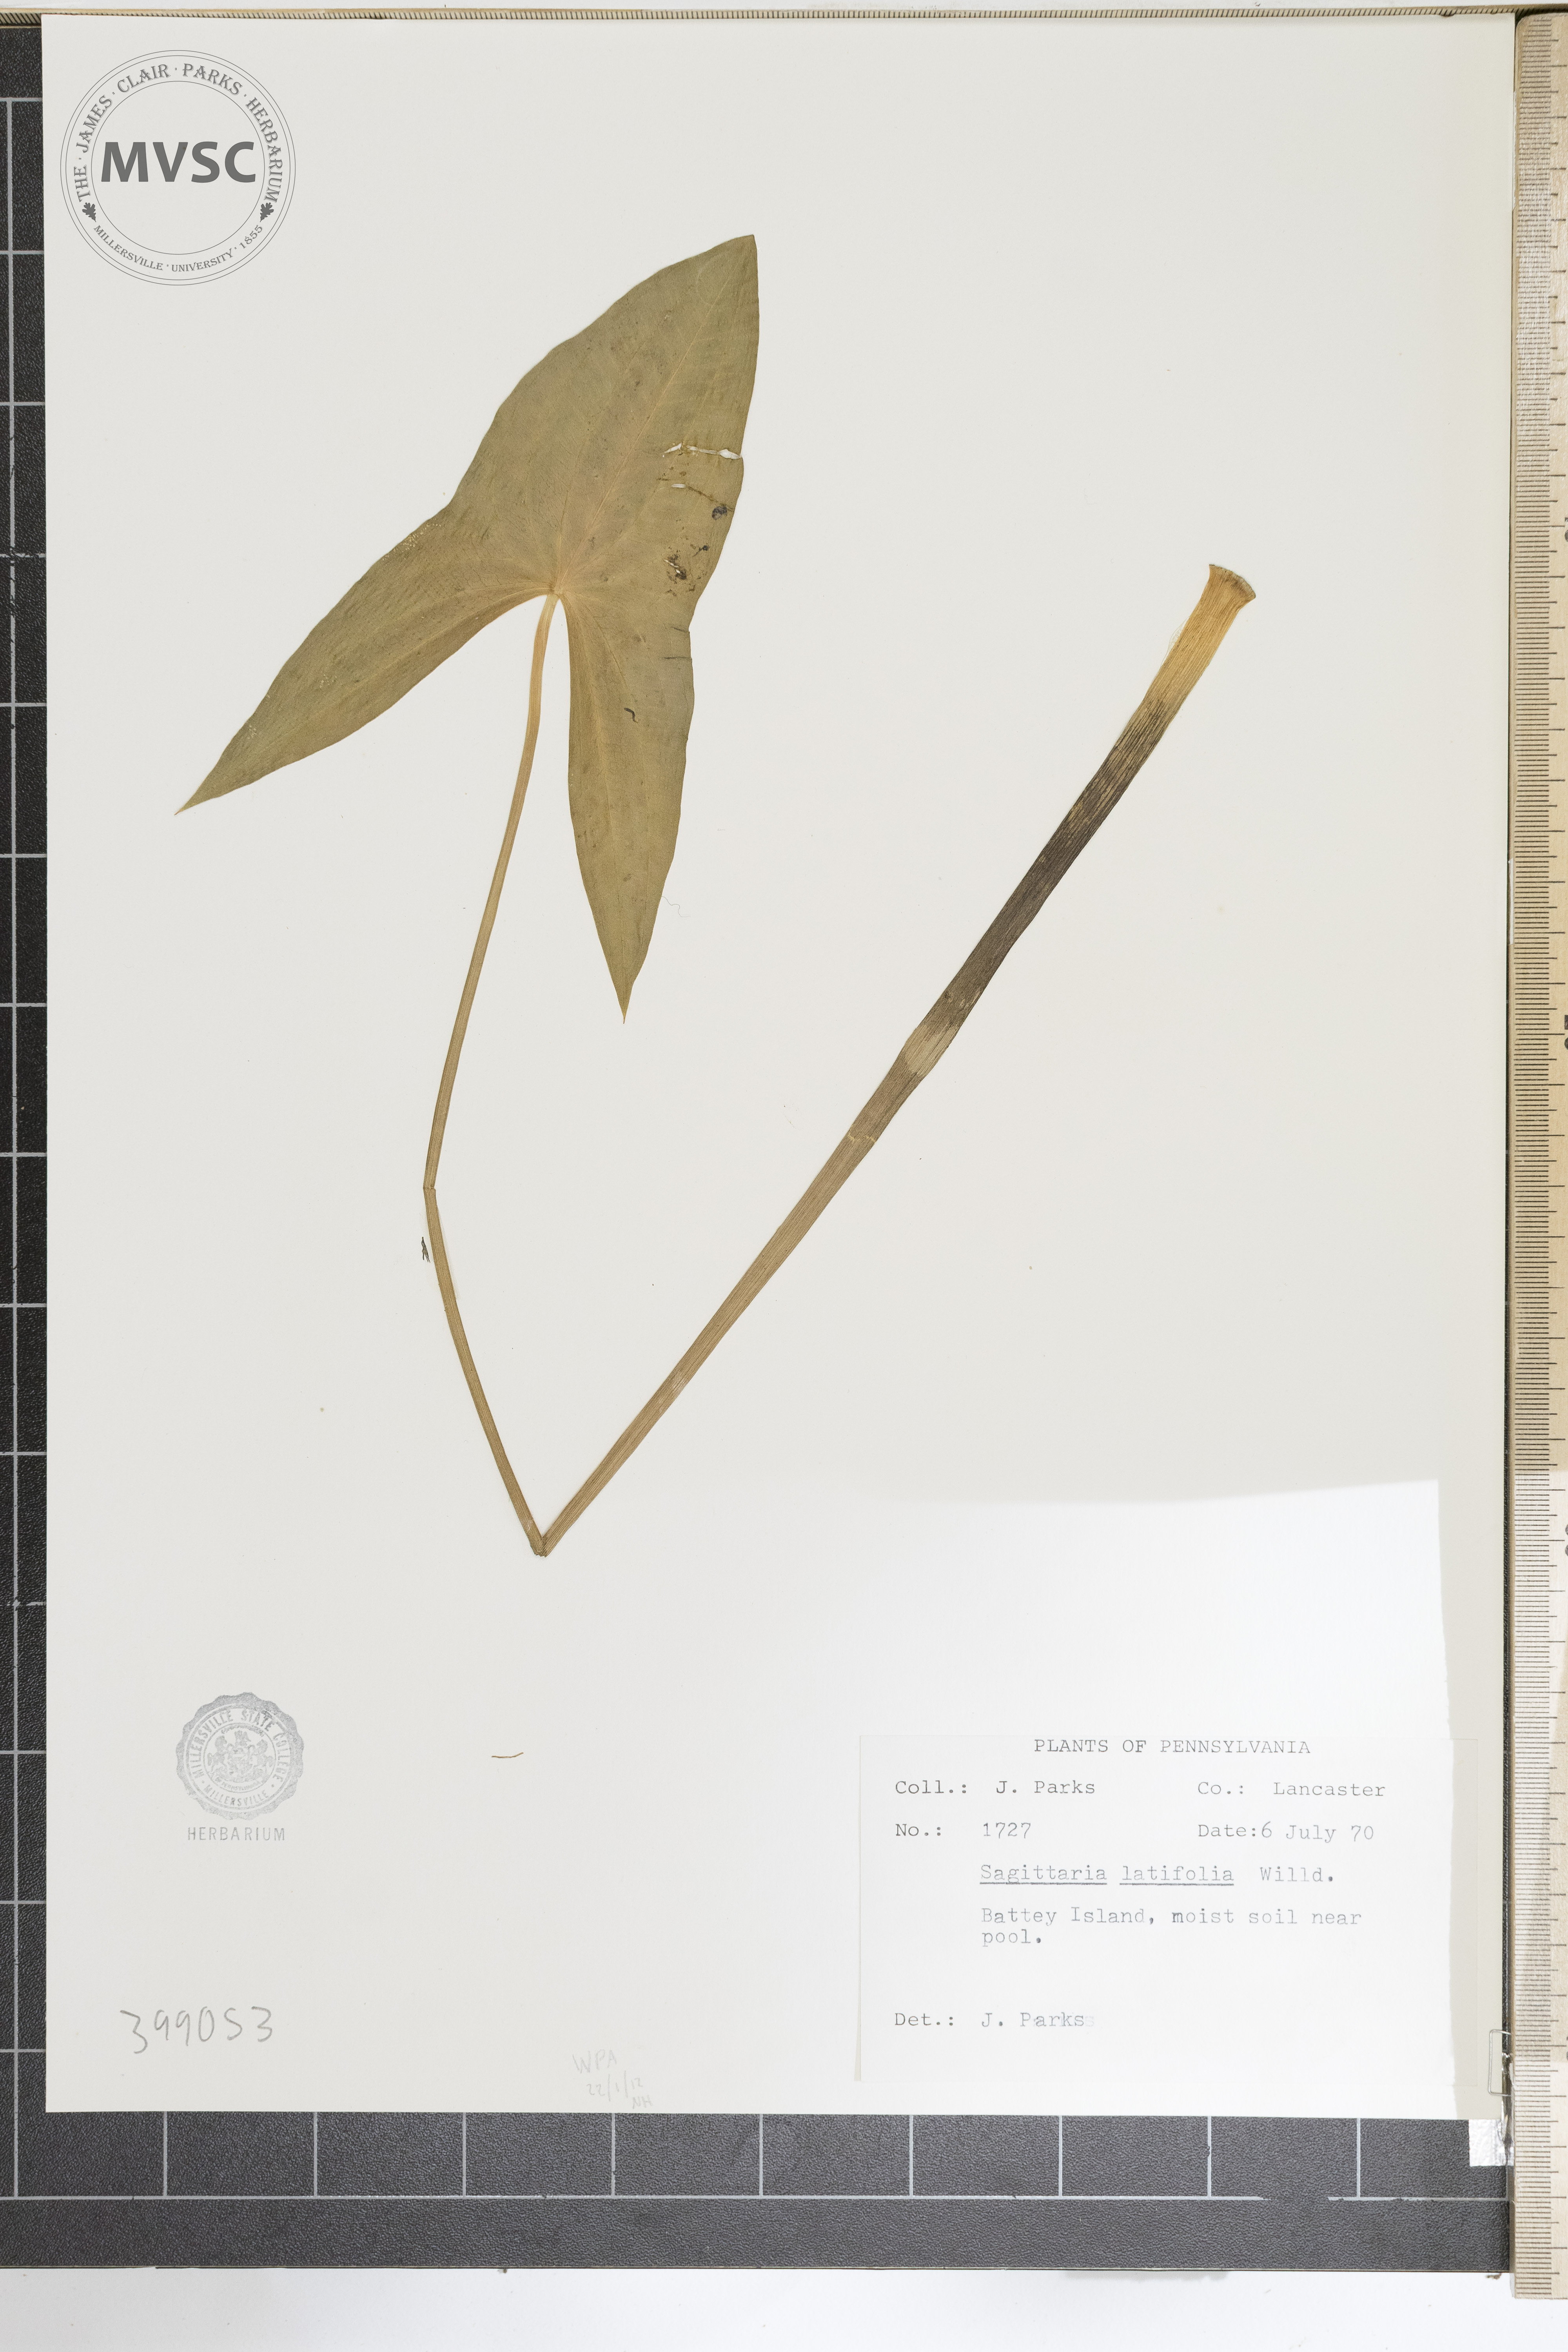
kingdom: Plantae
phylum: Tracheophyta
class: Liliopsida
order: Alismatales
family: Alismataceae
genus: Sagittaria
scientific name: Sagittaria latifolia
